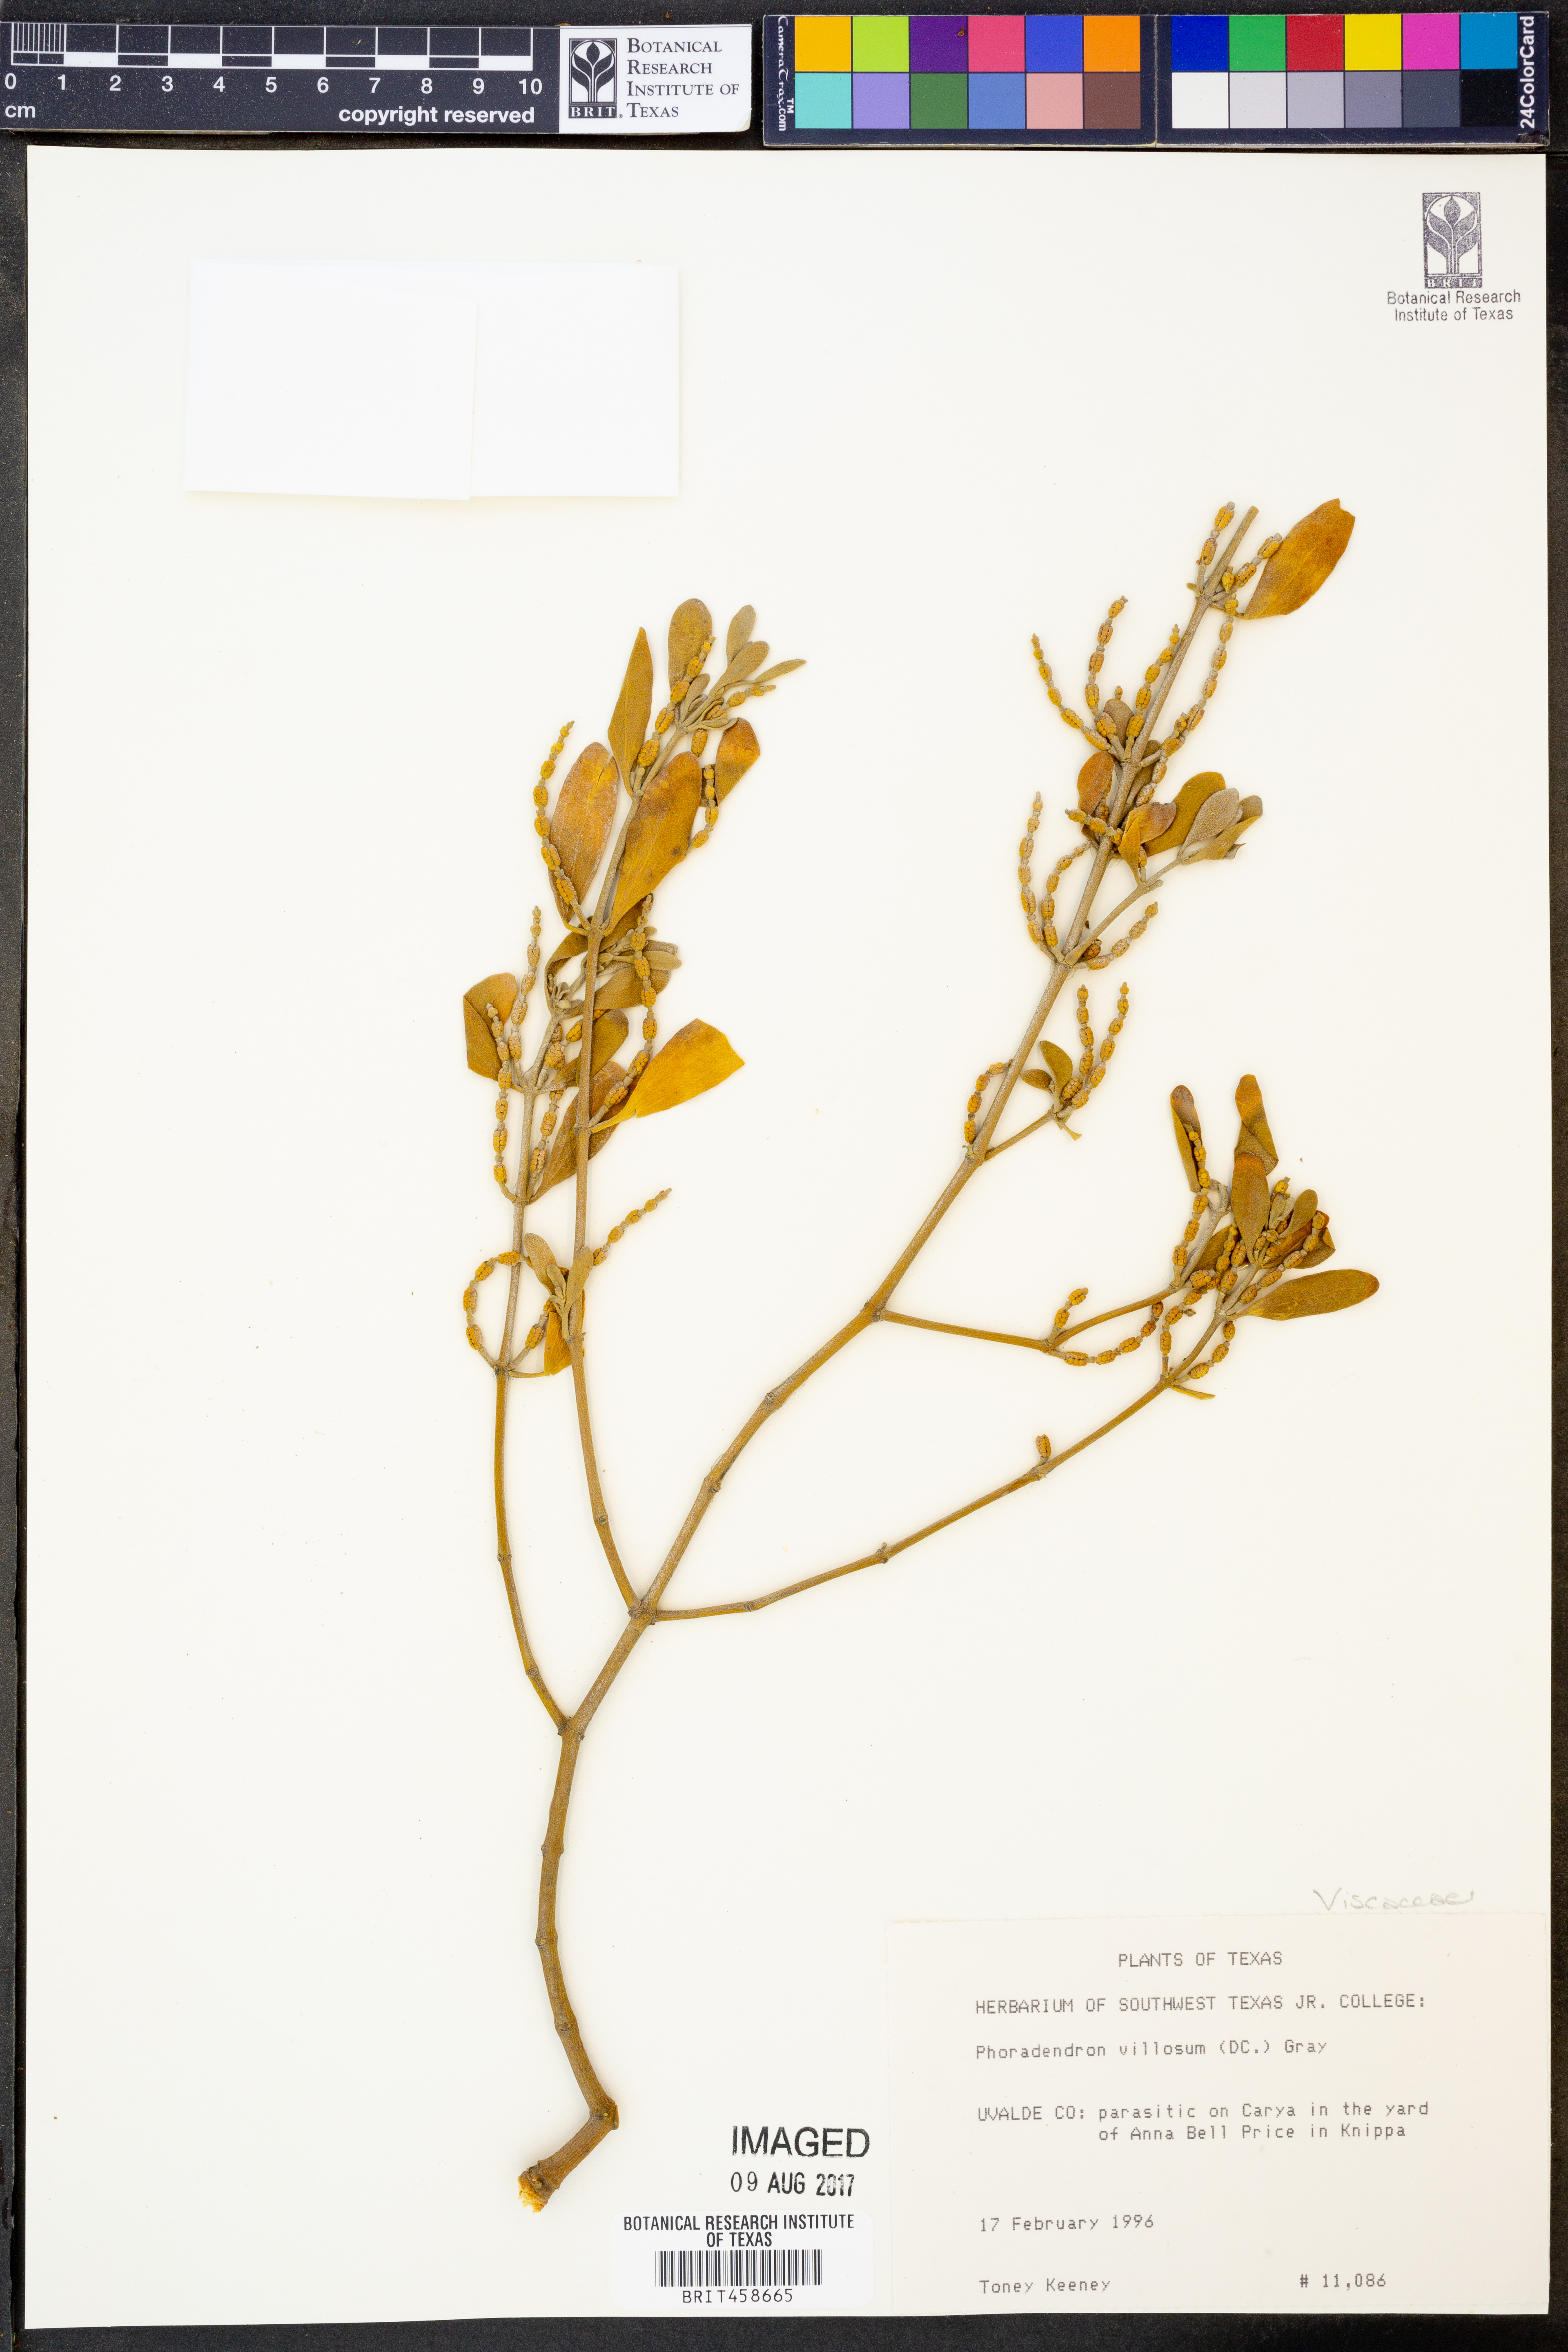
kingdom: Plantae
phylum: Tracheophyta
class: Magnoliopsida
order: Santalales
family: Viscaceae
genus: Phoradendron
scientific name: Phoradendron leucarpum
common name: Pacific mistletoe
